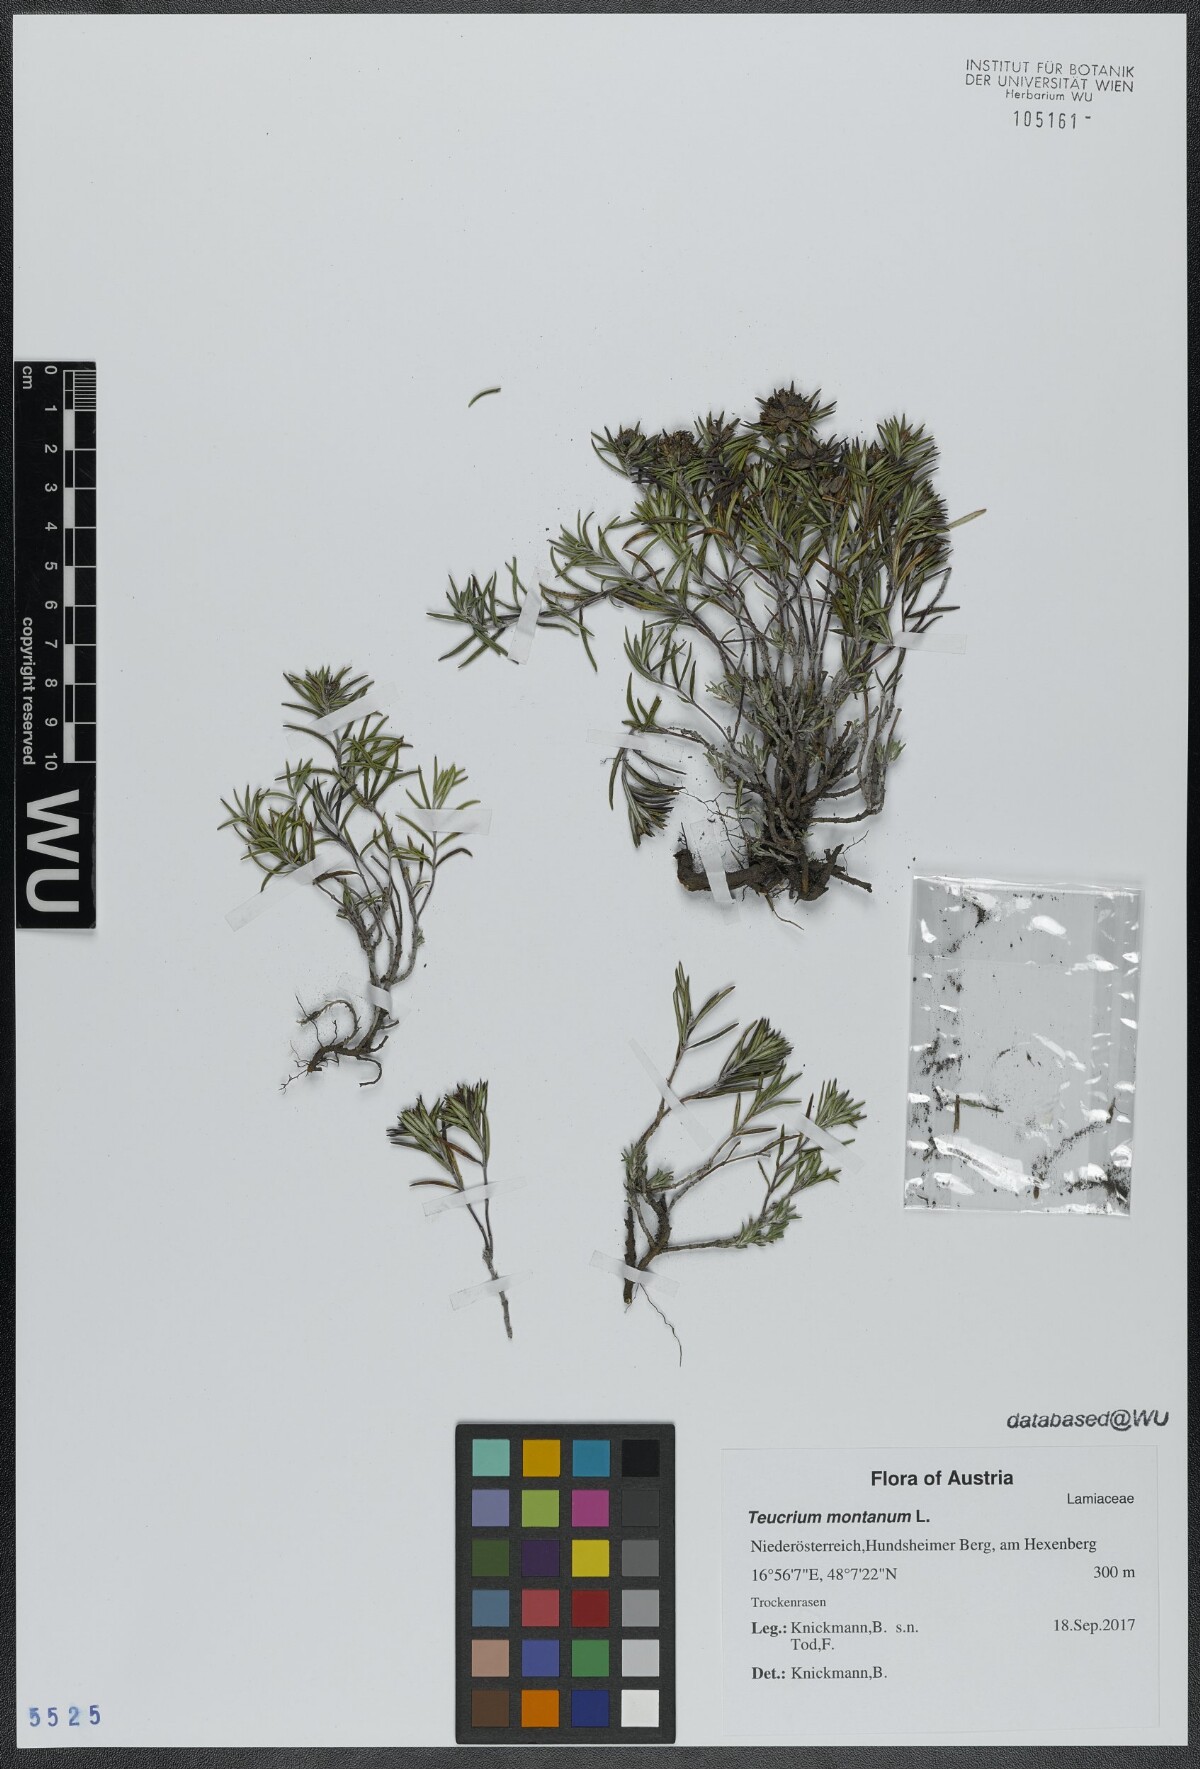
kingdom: Plantae
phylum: Tracheophyta
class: Magnoliopsida
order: Lamiales
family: Lamiaceae
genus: Teucrium
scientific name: Teucrium montanum
